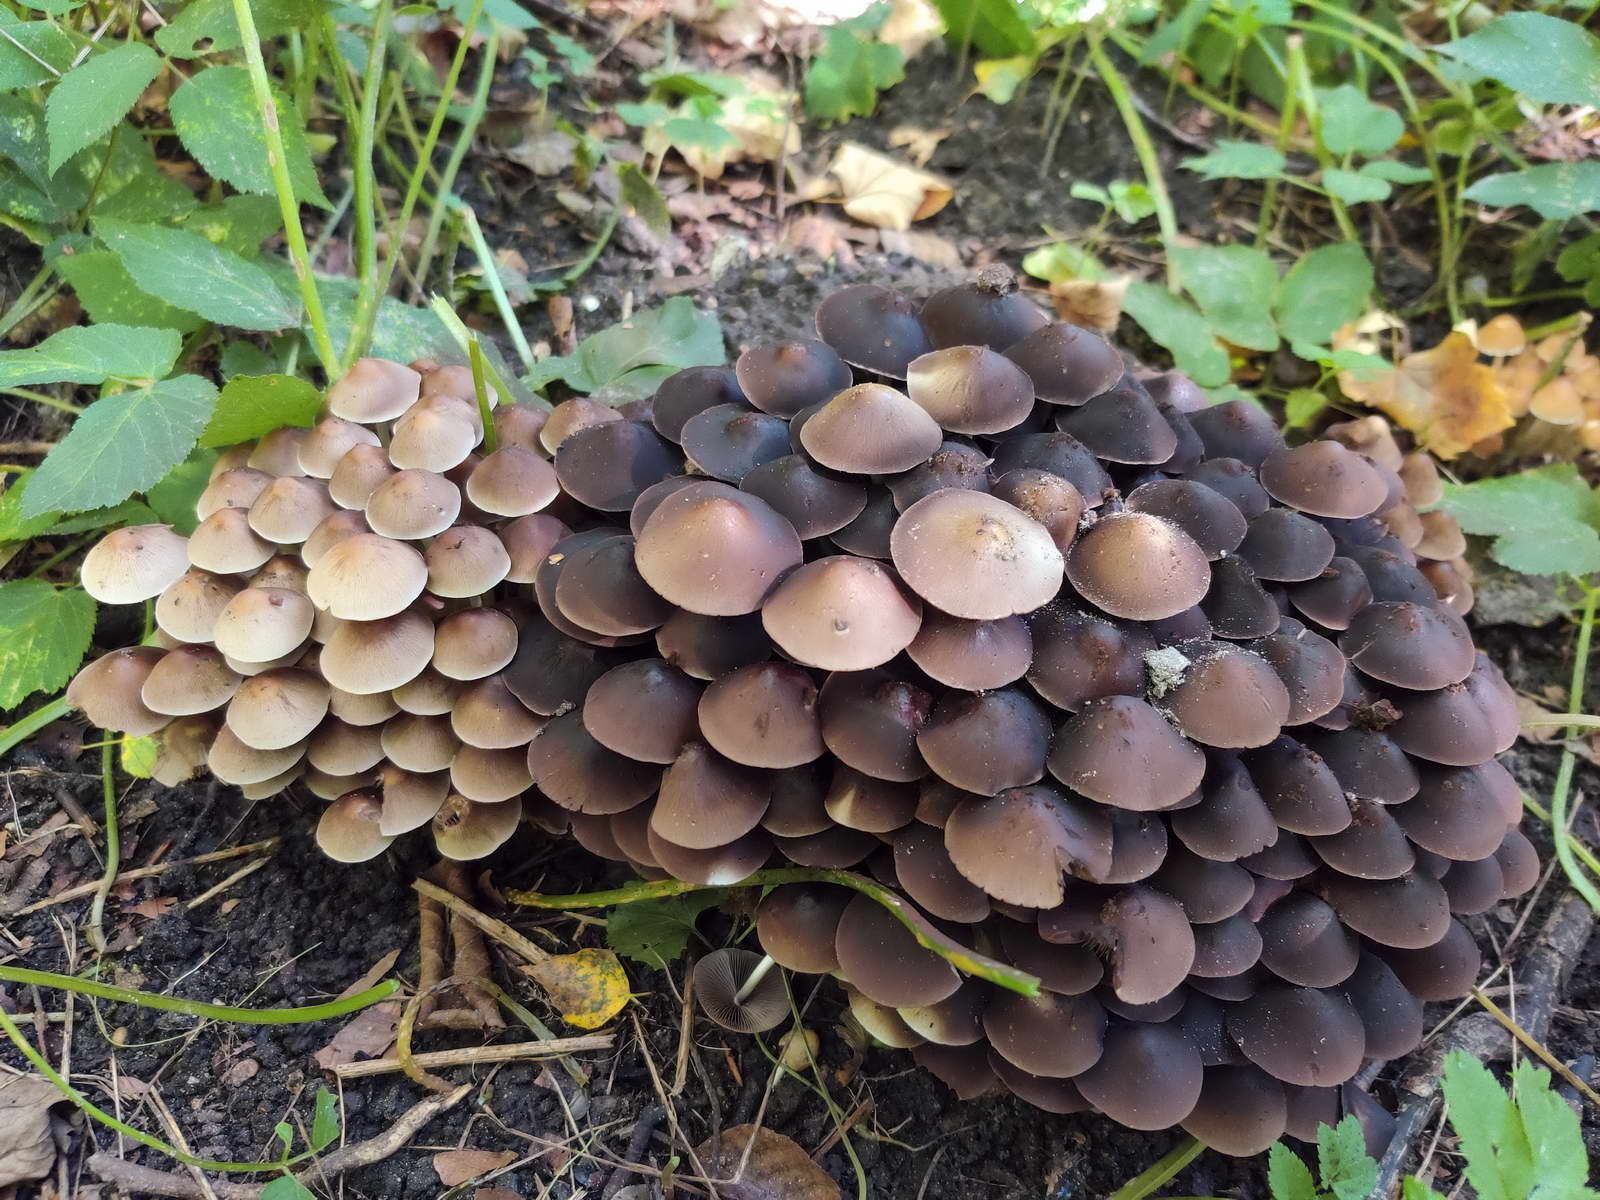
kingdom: Fungi
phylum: Basidiomycota
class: Agaricomycetes
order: Agaricales
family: Psathyrellaceae
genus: Britzelmayria
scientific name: Britzelmayria multipedata
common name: knippe-mørkhat
